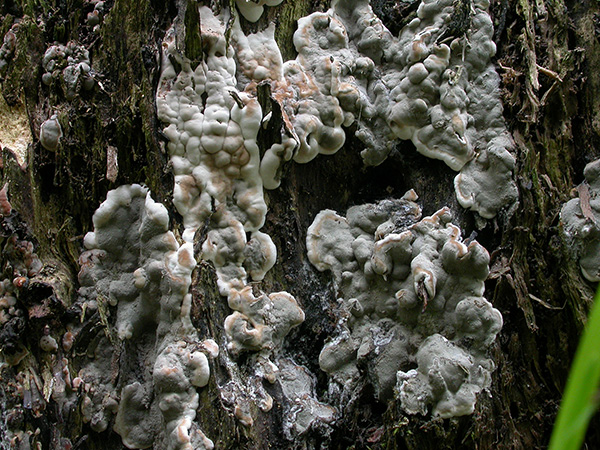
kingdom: Fungi
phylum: Ascomycota
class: Sordariomycetes
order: Xylariales
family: Xylariaceae
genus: Kretzschmaria
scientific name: Kretzschmaria deusta
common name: stor kulsvamp
